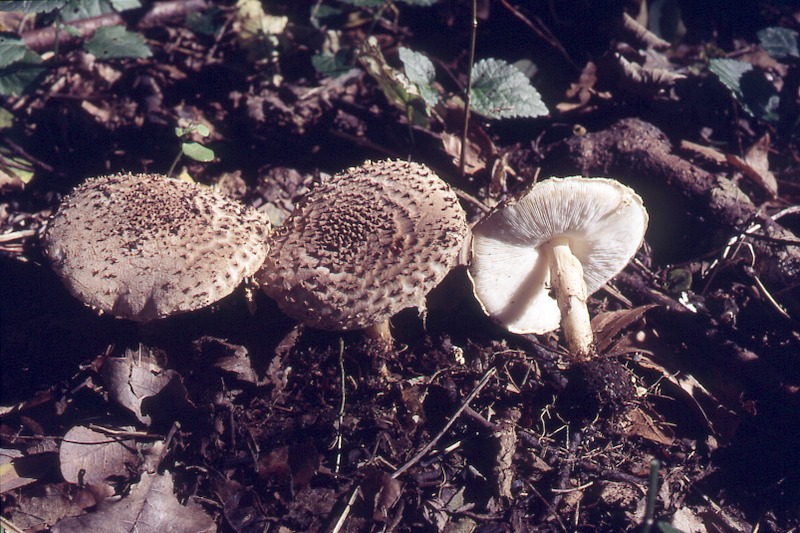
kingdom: Fungi
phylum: Basidiomycota
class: Agaricomycetes
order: Agaricales
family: Agaricaceae
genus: Echinoderma
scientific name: Echinoderma asperum
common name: Freckled dapperling
